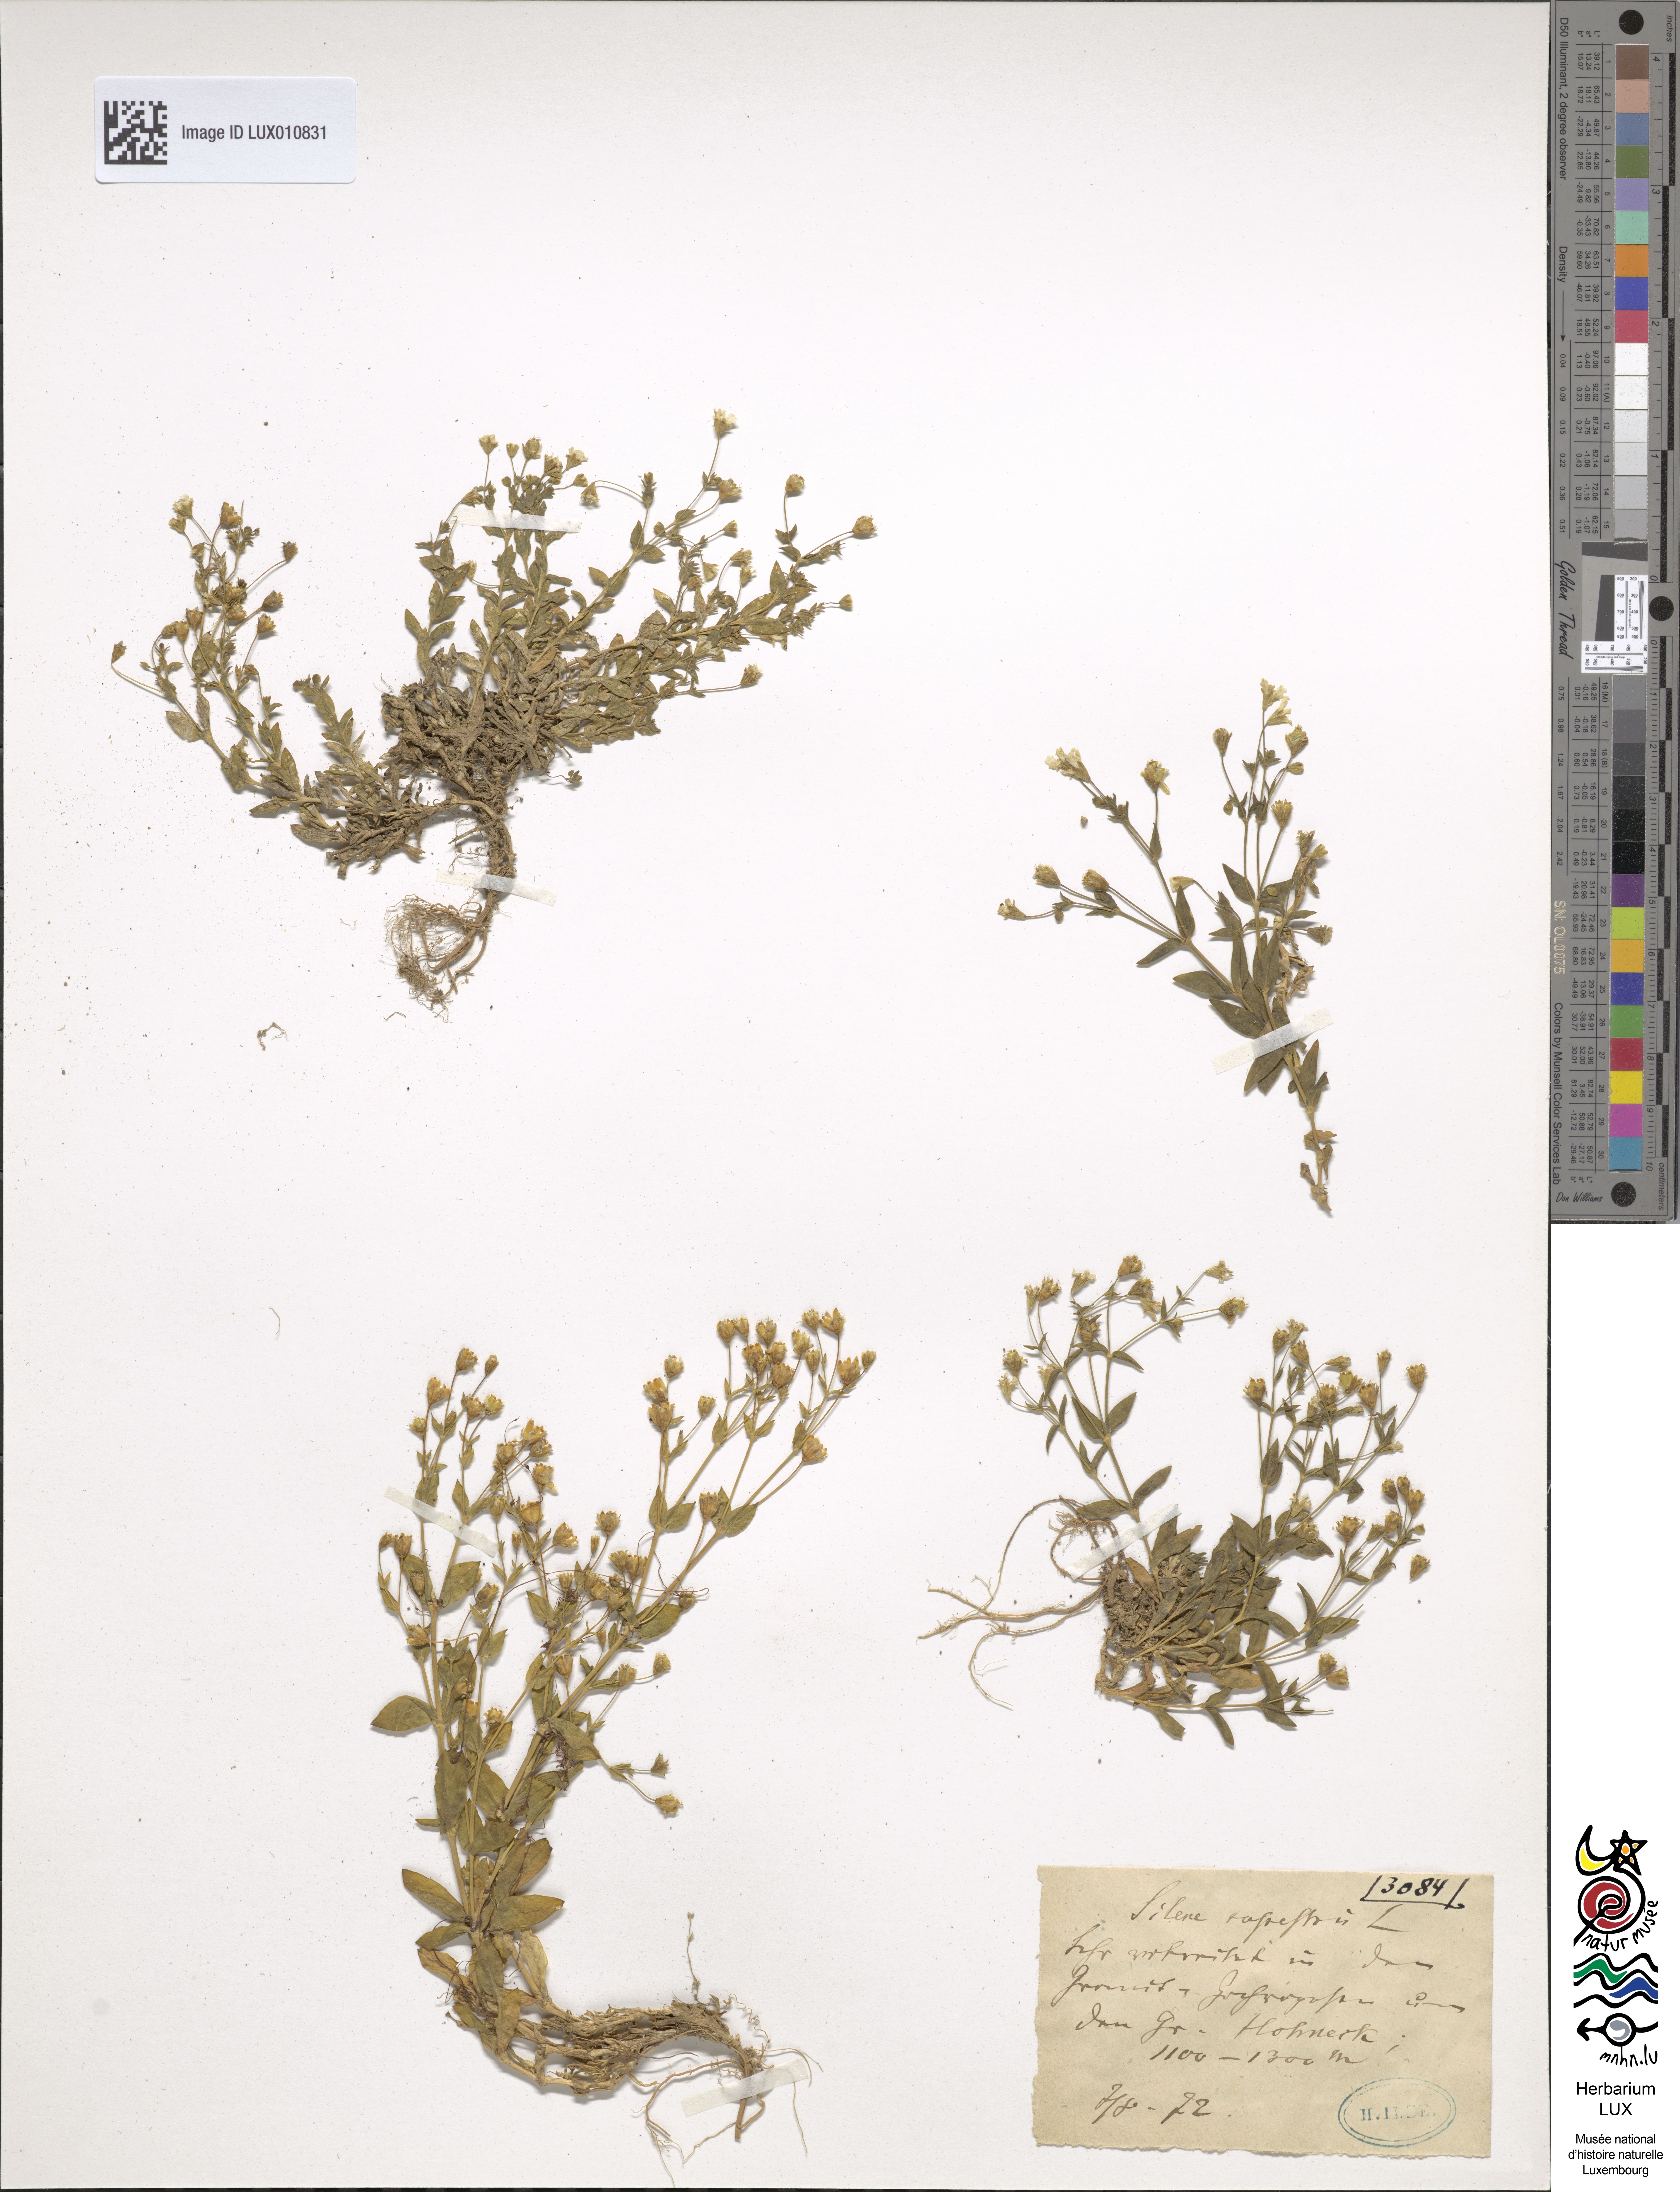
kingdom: Plantae
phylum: Tracheophyta
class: Magnoliopsida
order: Caryophyllales
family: Caryophyllaceae
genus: Atocion
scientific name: Atocion rupestre
